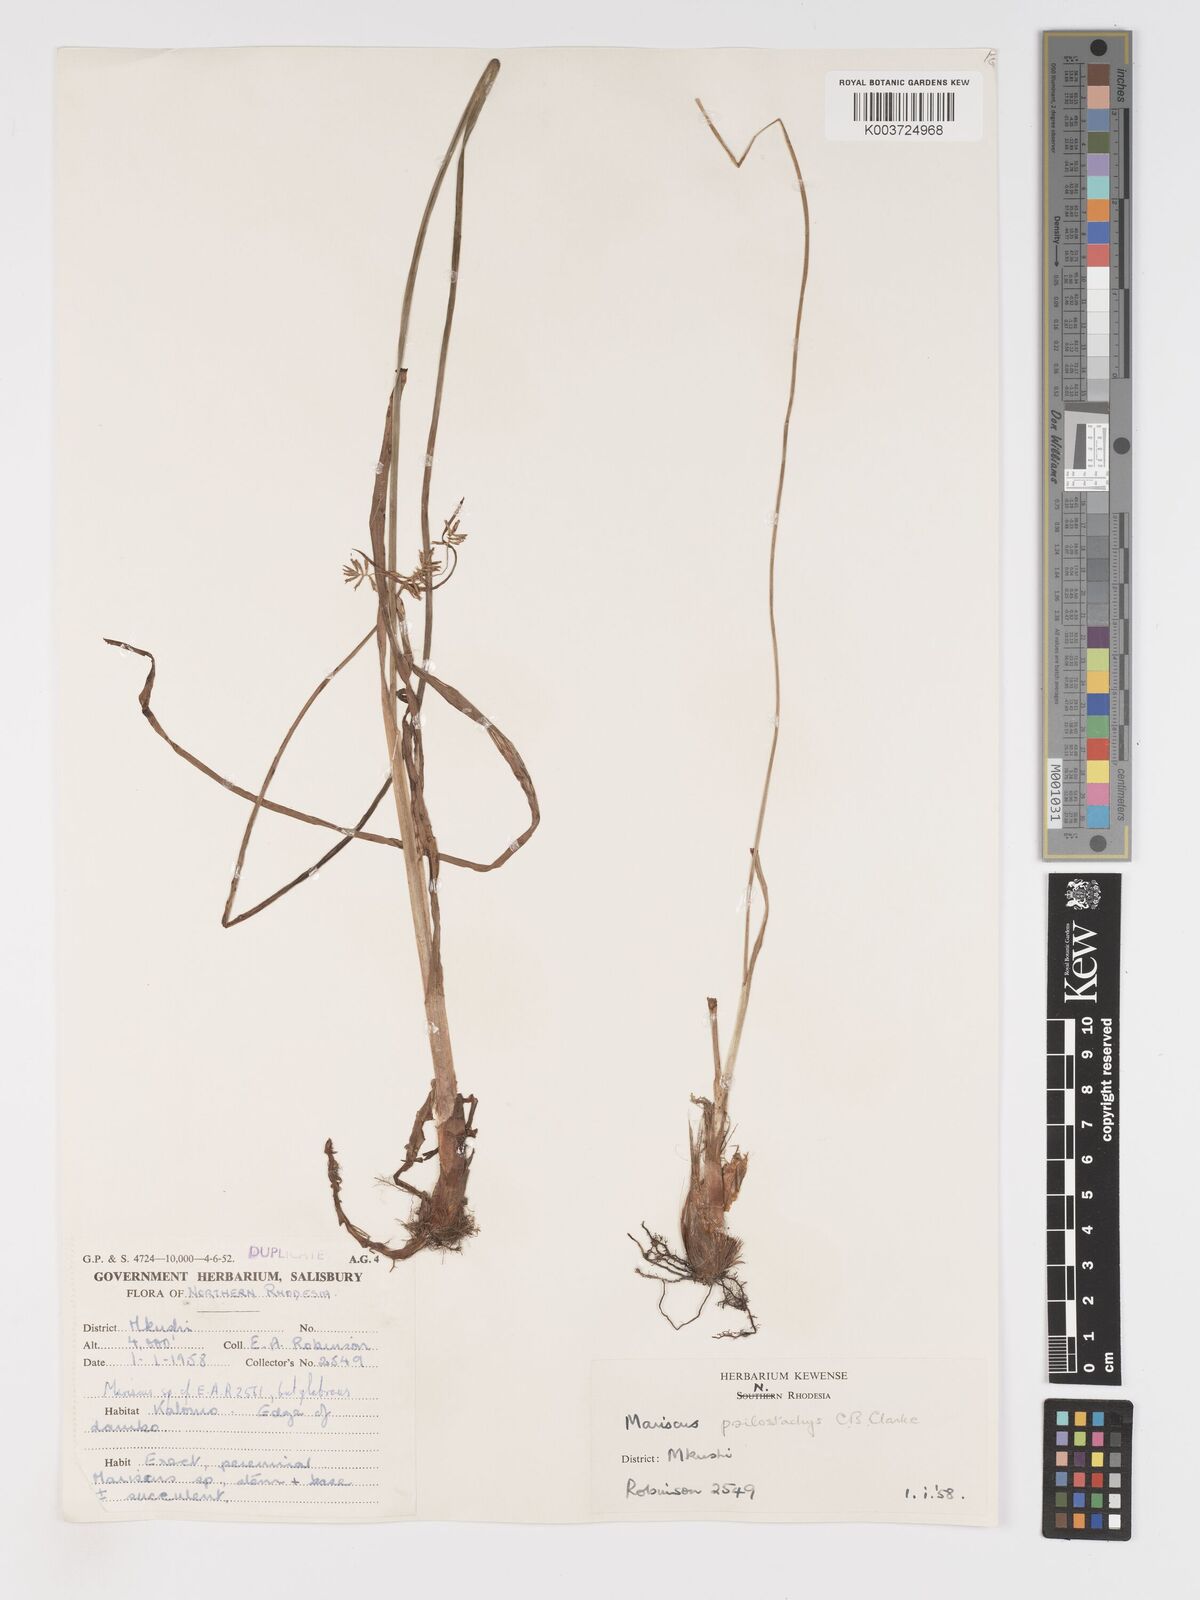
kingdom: Plantae
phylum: Tracheophyta
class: Liliopsida
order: Poales
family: Cyperaceae
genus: Cyperus
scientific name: Cyperus trigonellus
